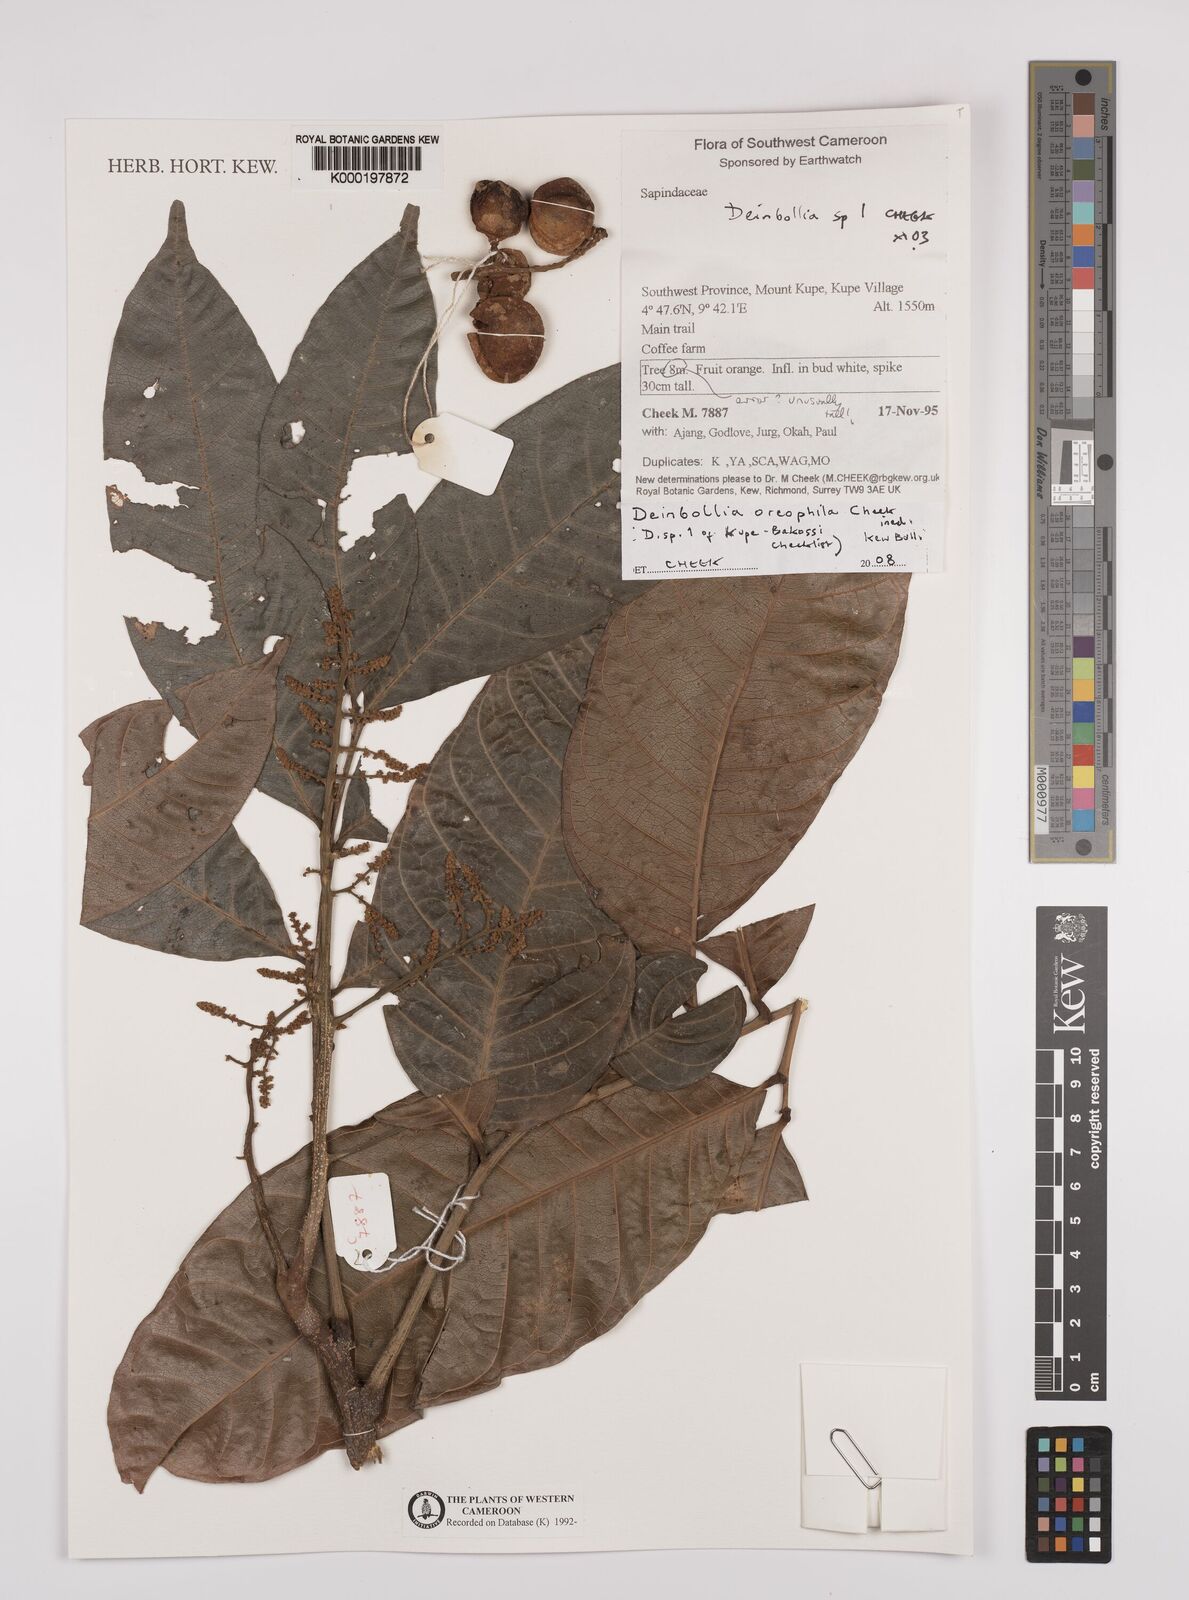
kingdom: Plantae
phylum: Tracheophyta
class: Magnoliopsida
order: Sapindales
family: Sapindaceae
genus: Deinbollia
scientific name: Deinbollia oreophila
